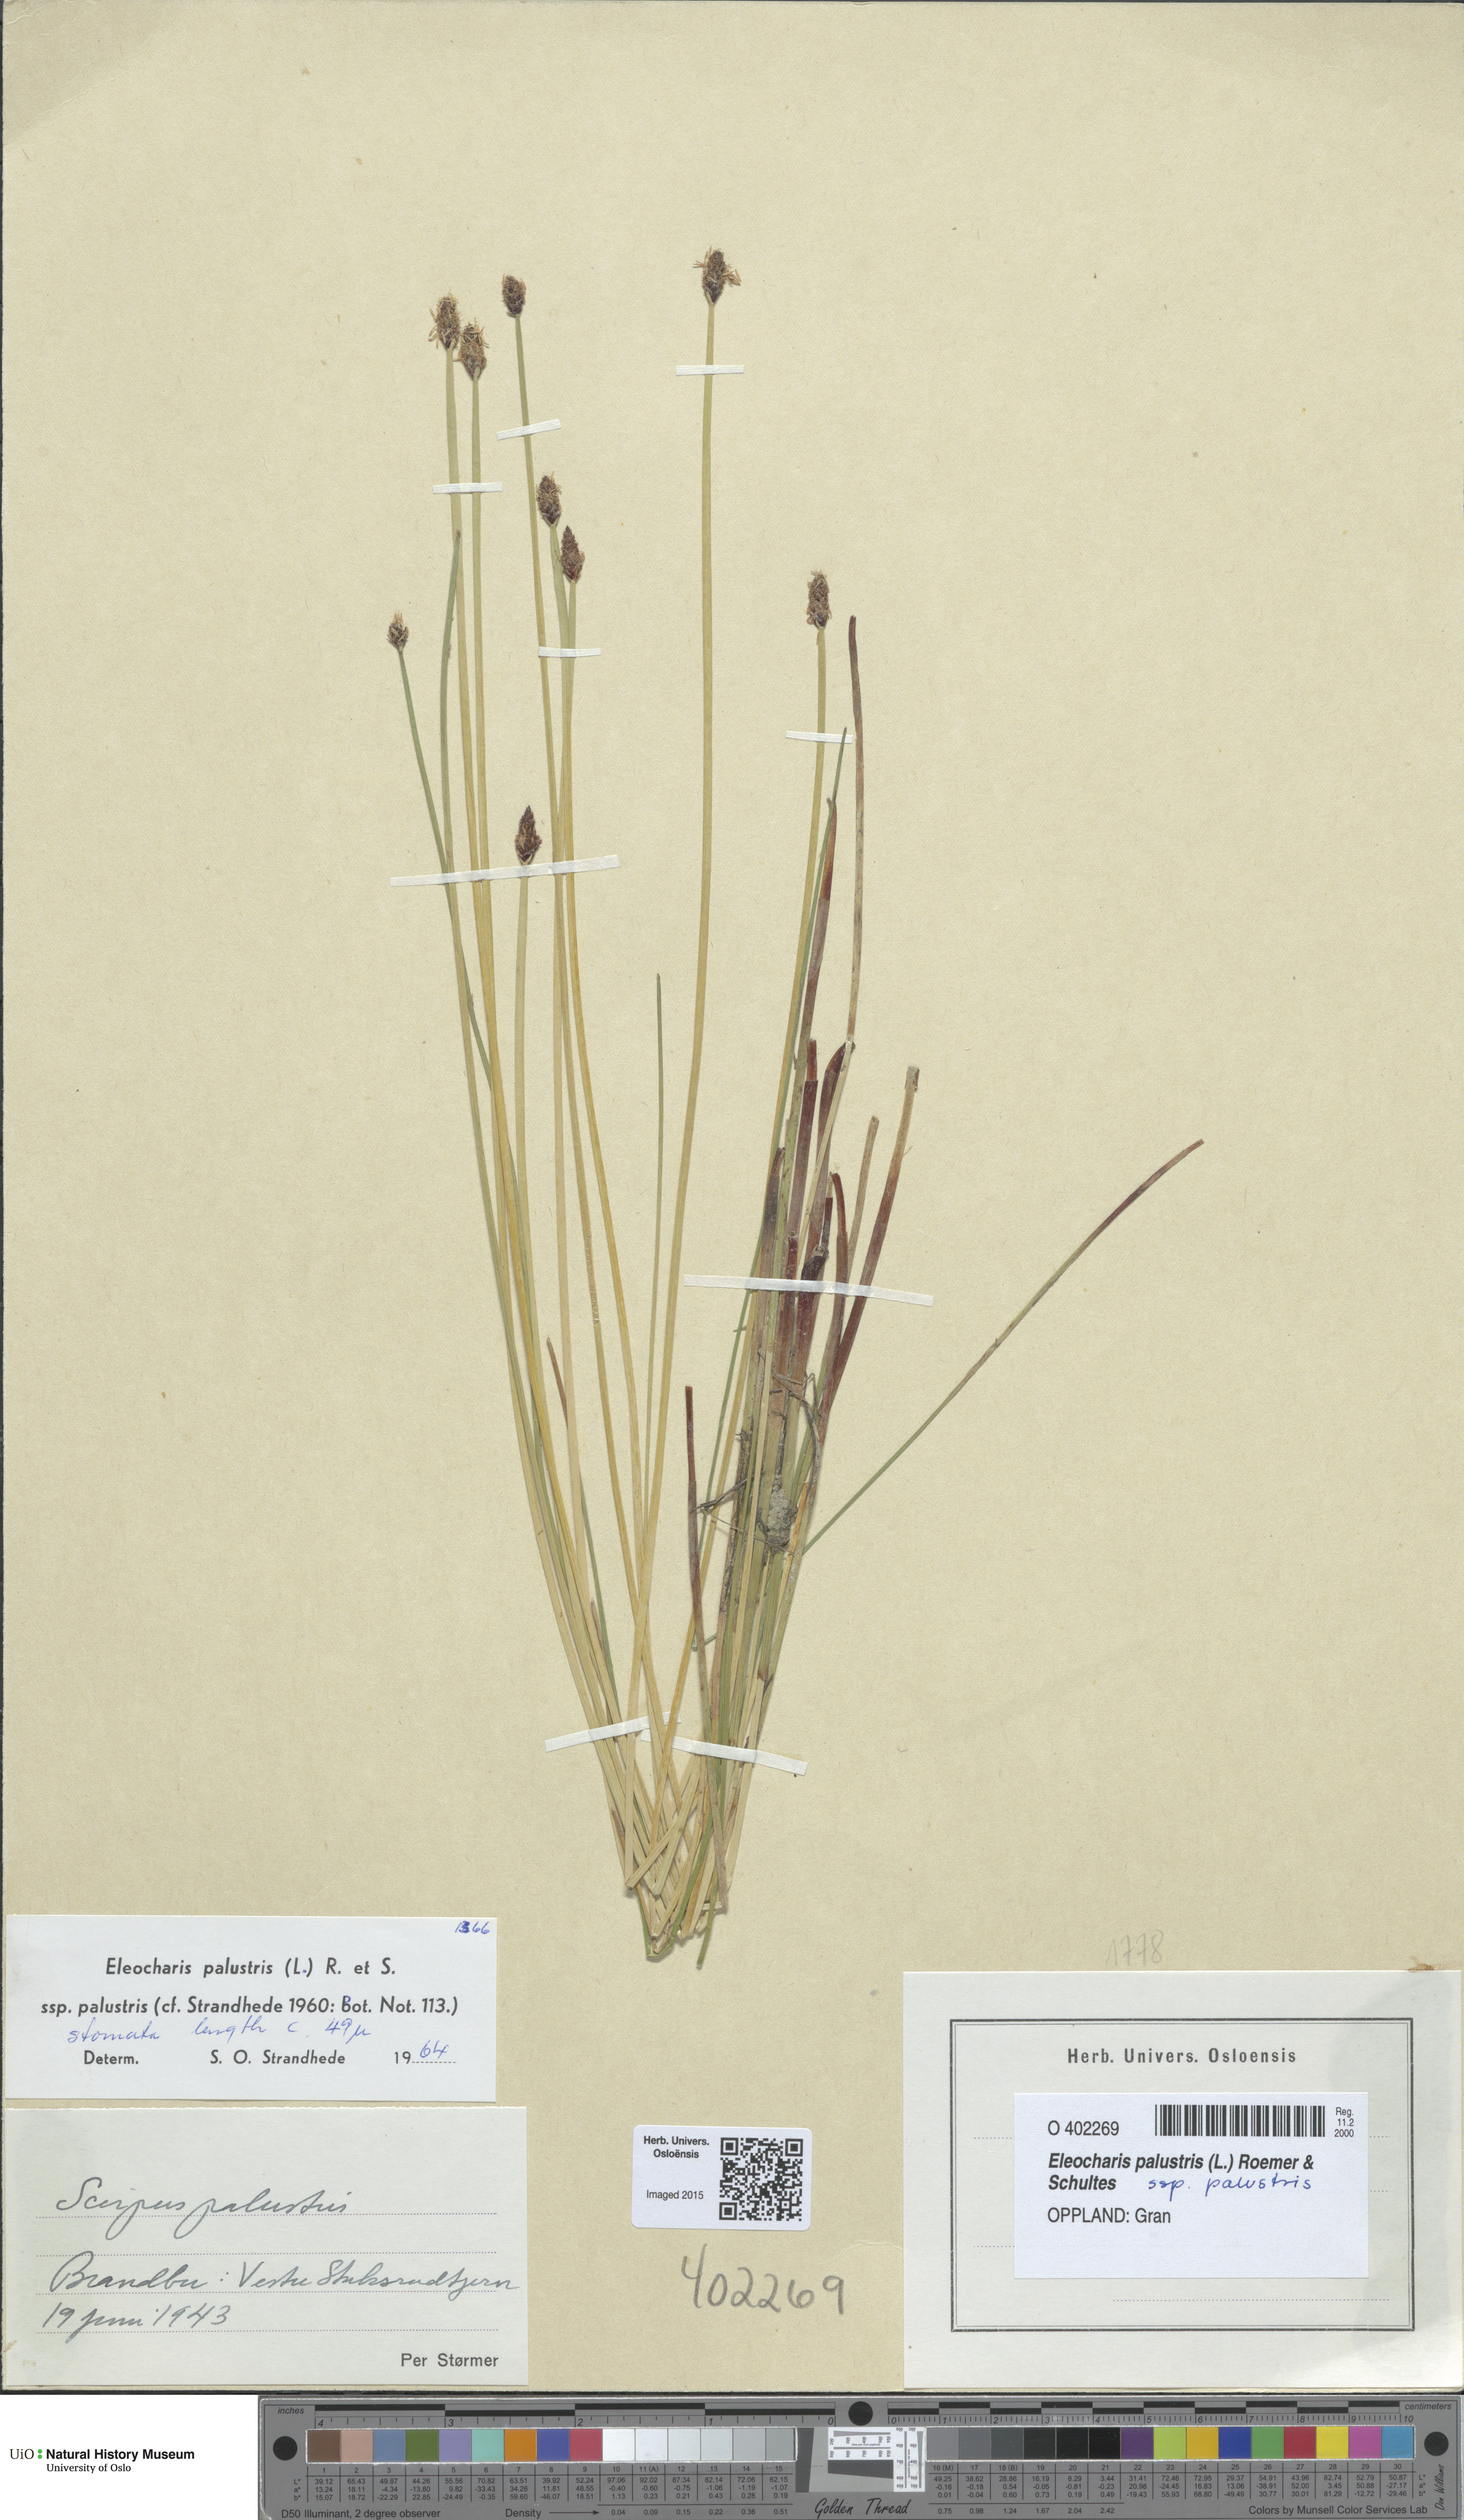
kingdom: Plantae
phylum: Tracheophyta
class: Liliopsida
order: Poales
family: Cyperaceae
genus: Eleocharis
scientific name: Eleocharis palustris
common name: Common spike-rush
